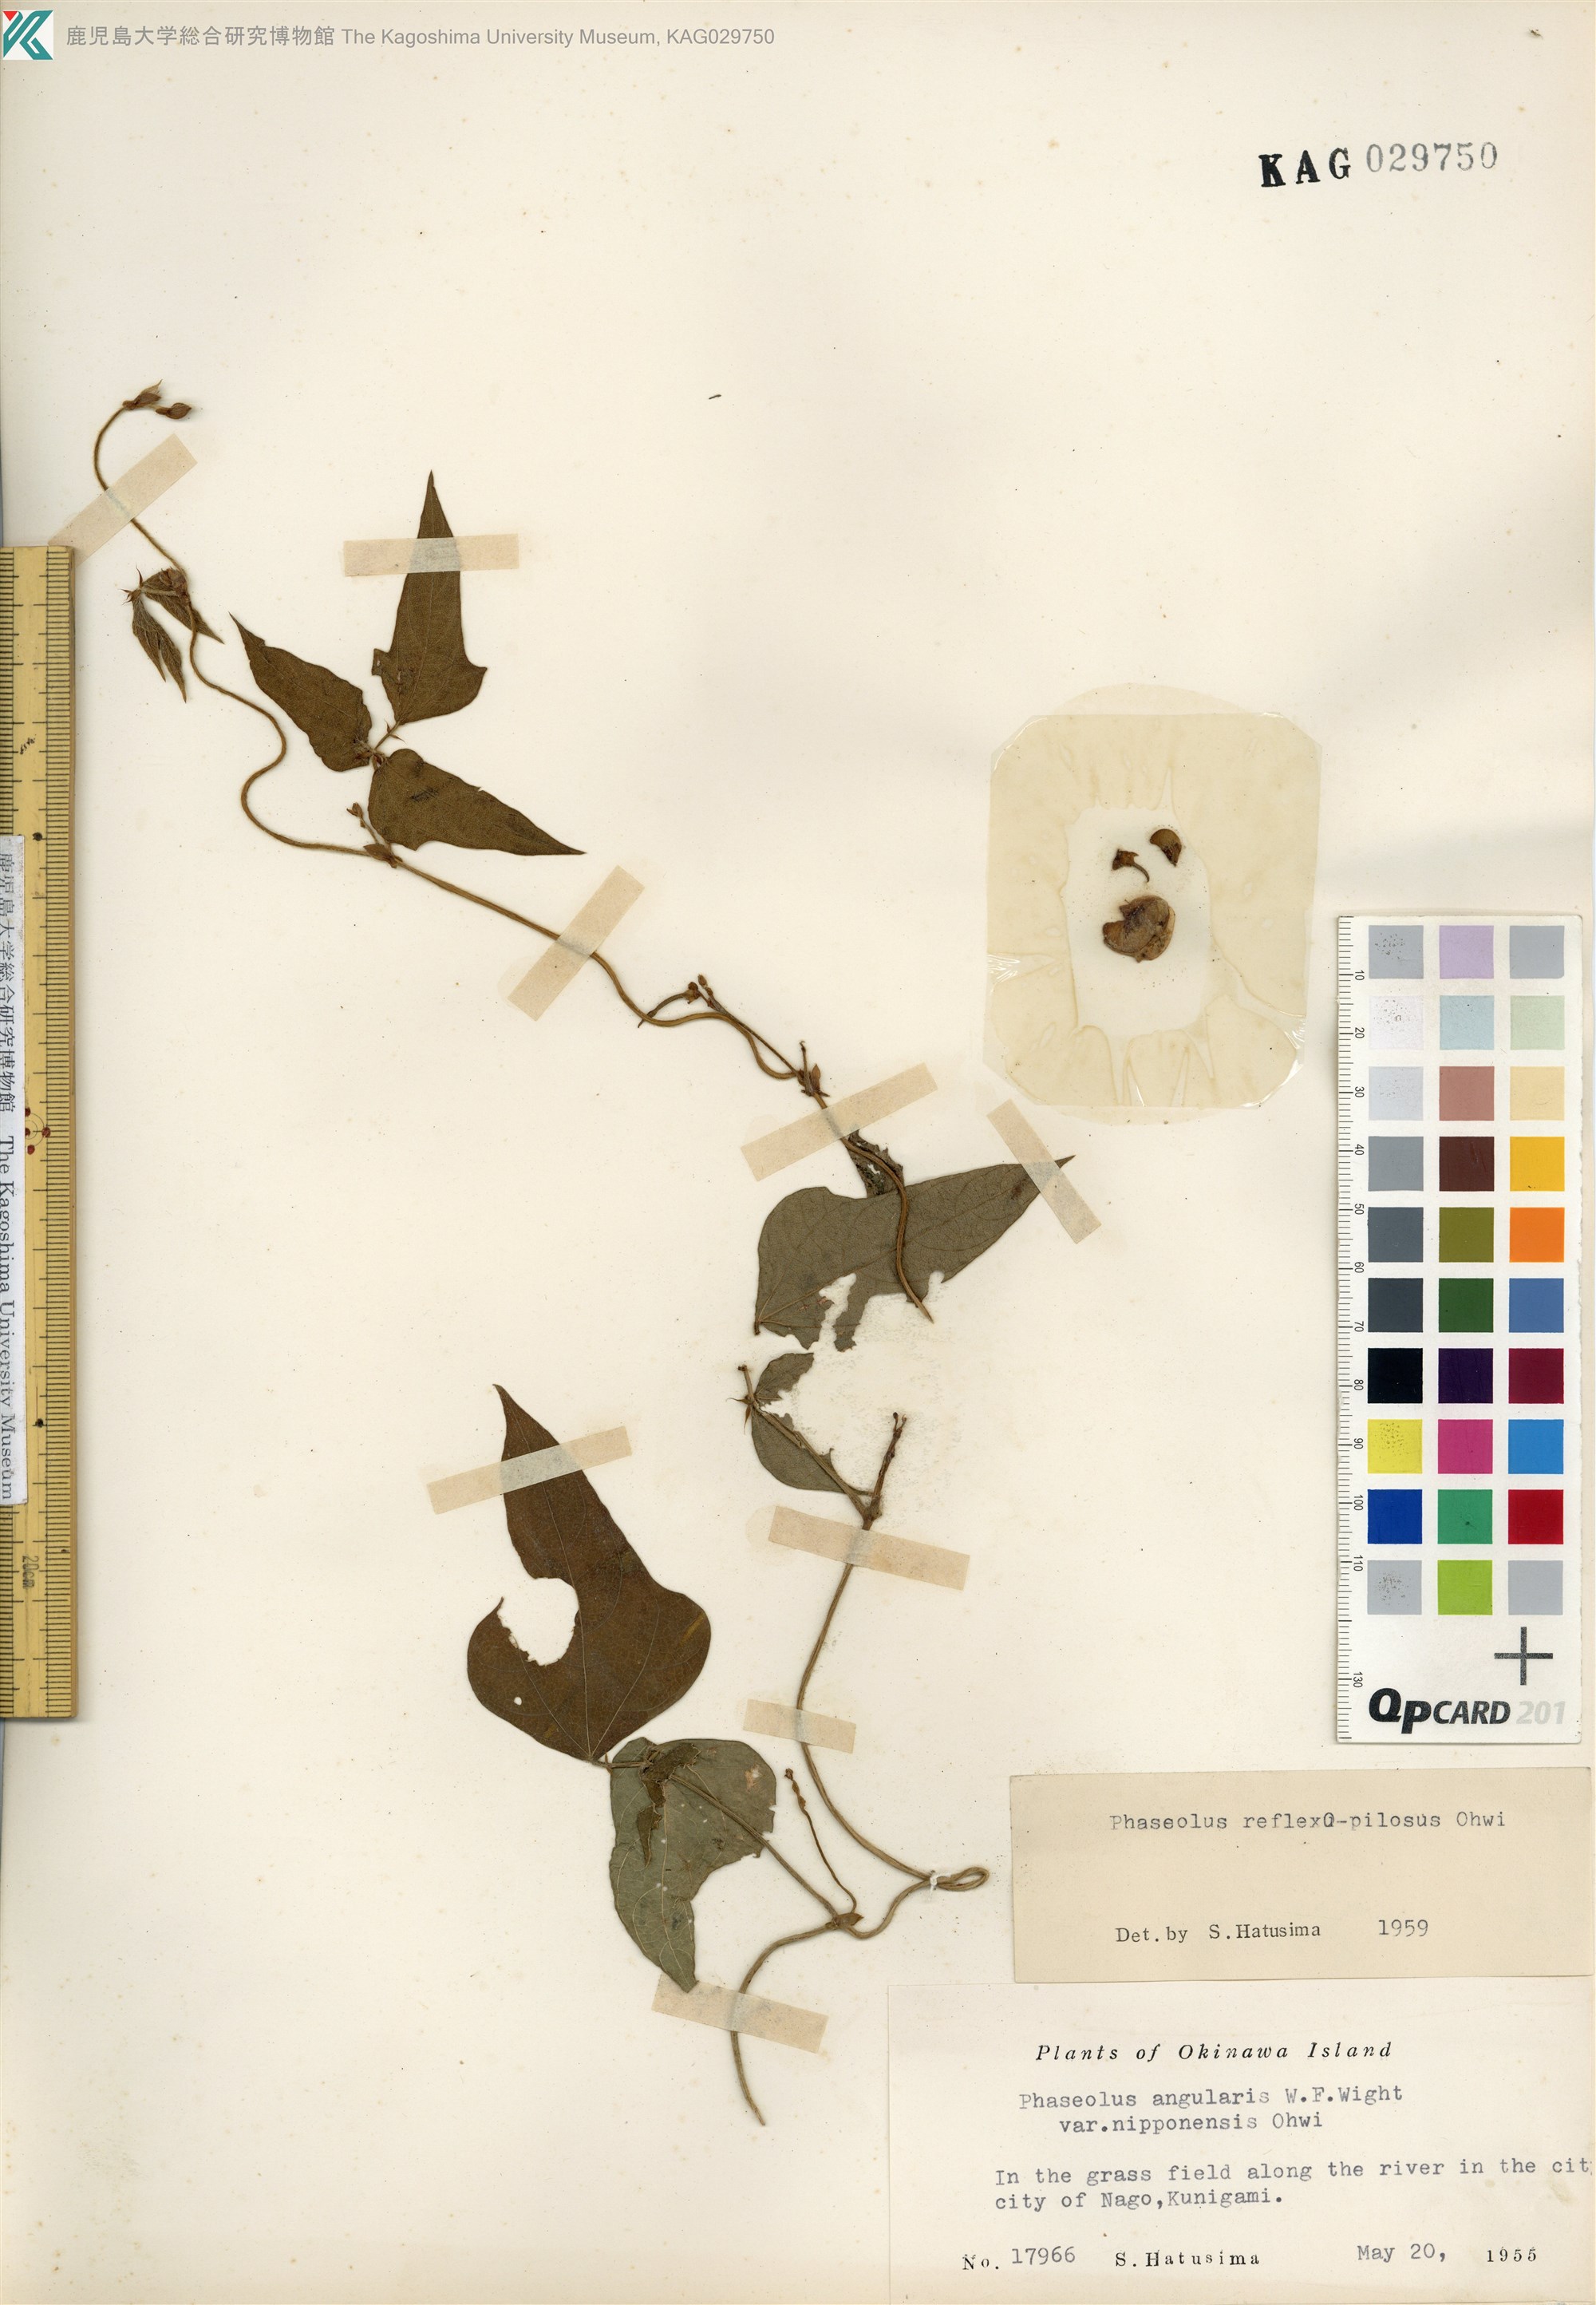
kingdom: Plantae
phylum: Tracheophyta
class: Magnoliopsida
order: Fabales
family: Fabaceae
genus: Vigna
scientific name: Vigna reflexopilosa
